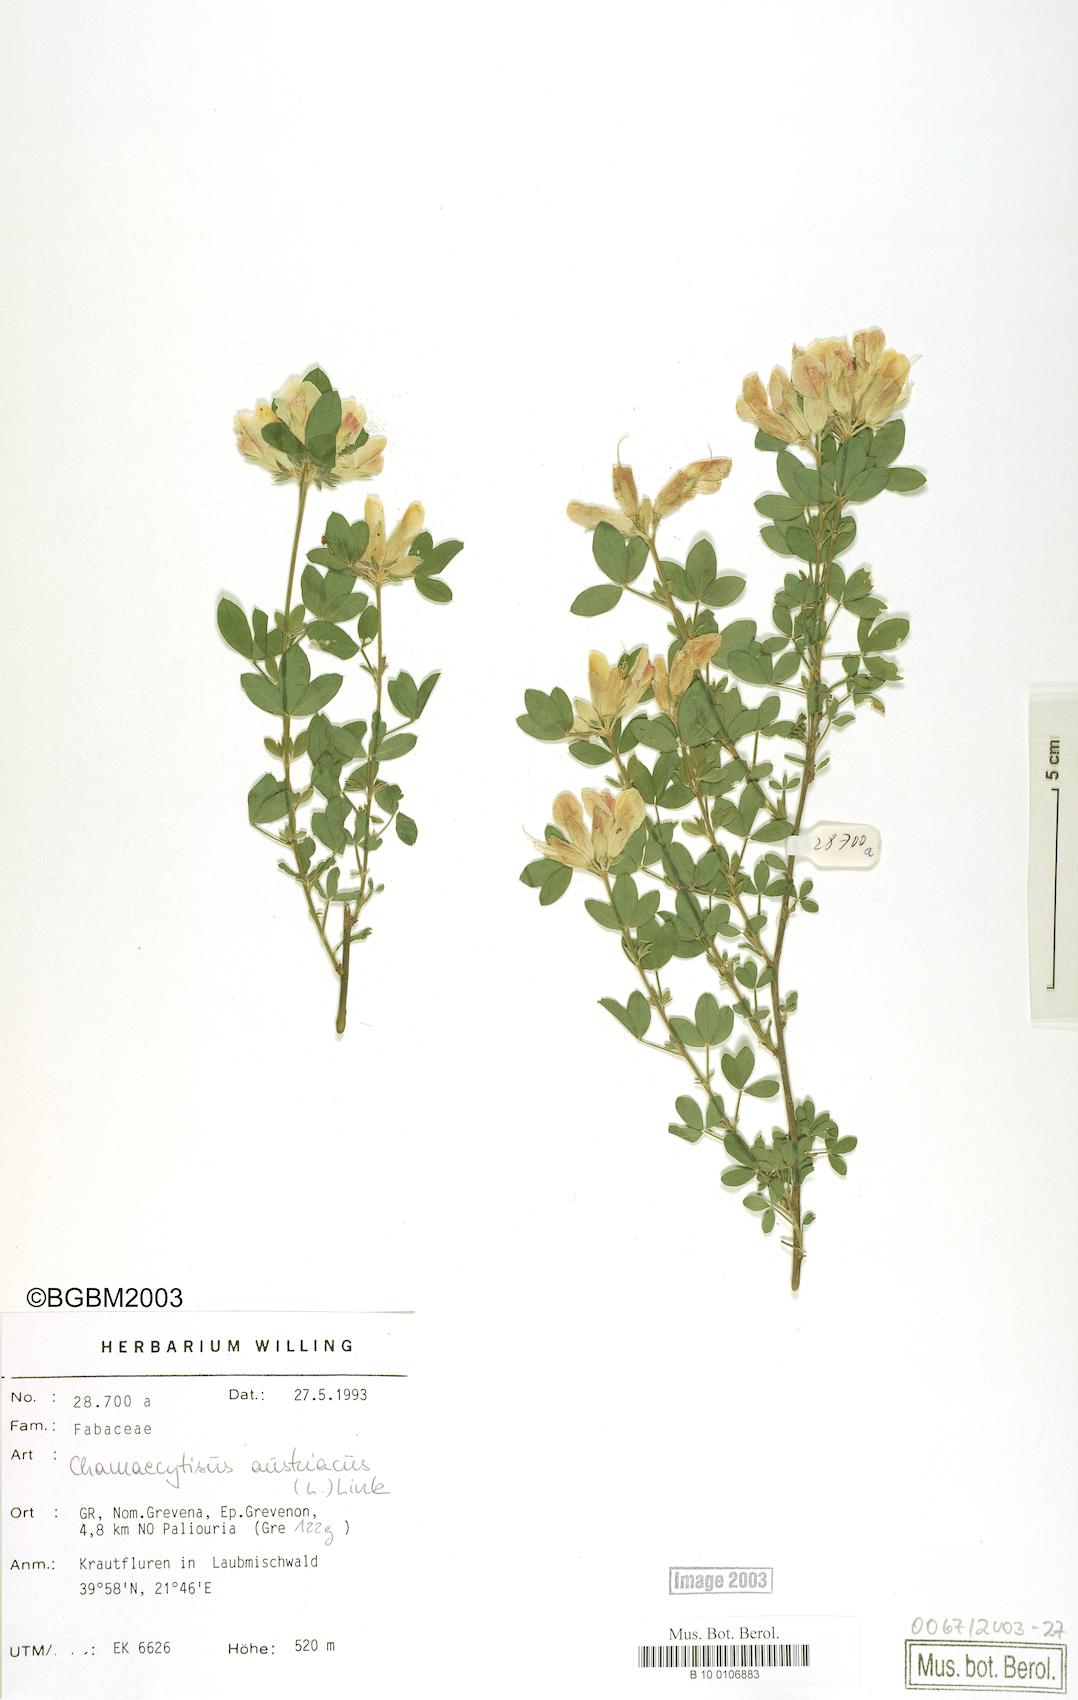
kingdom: Plantae
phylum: Tracheophyta
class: Magnoliopsida
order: Fabales
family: Fabaceae
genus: Chamaecytisus
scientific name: Chamaecytisus austriacus
